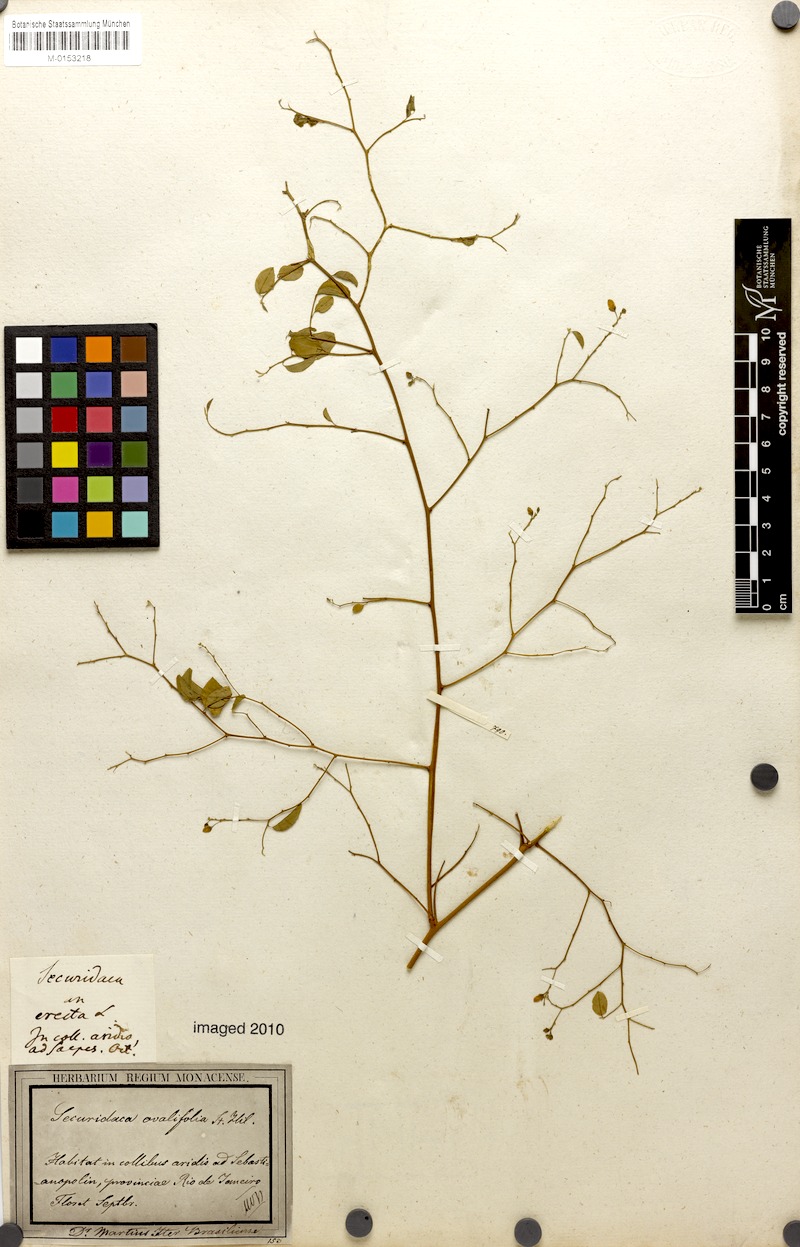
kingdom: Plantae
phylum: Tracheophyta
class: Magnoliopsida
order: Fabales
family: Polygalaceae
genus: Securidaca
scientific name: Securidaca ovalifolia
